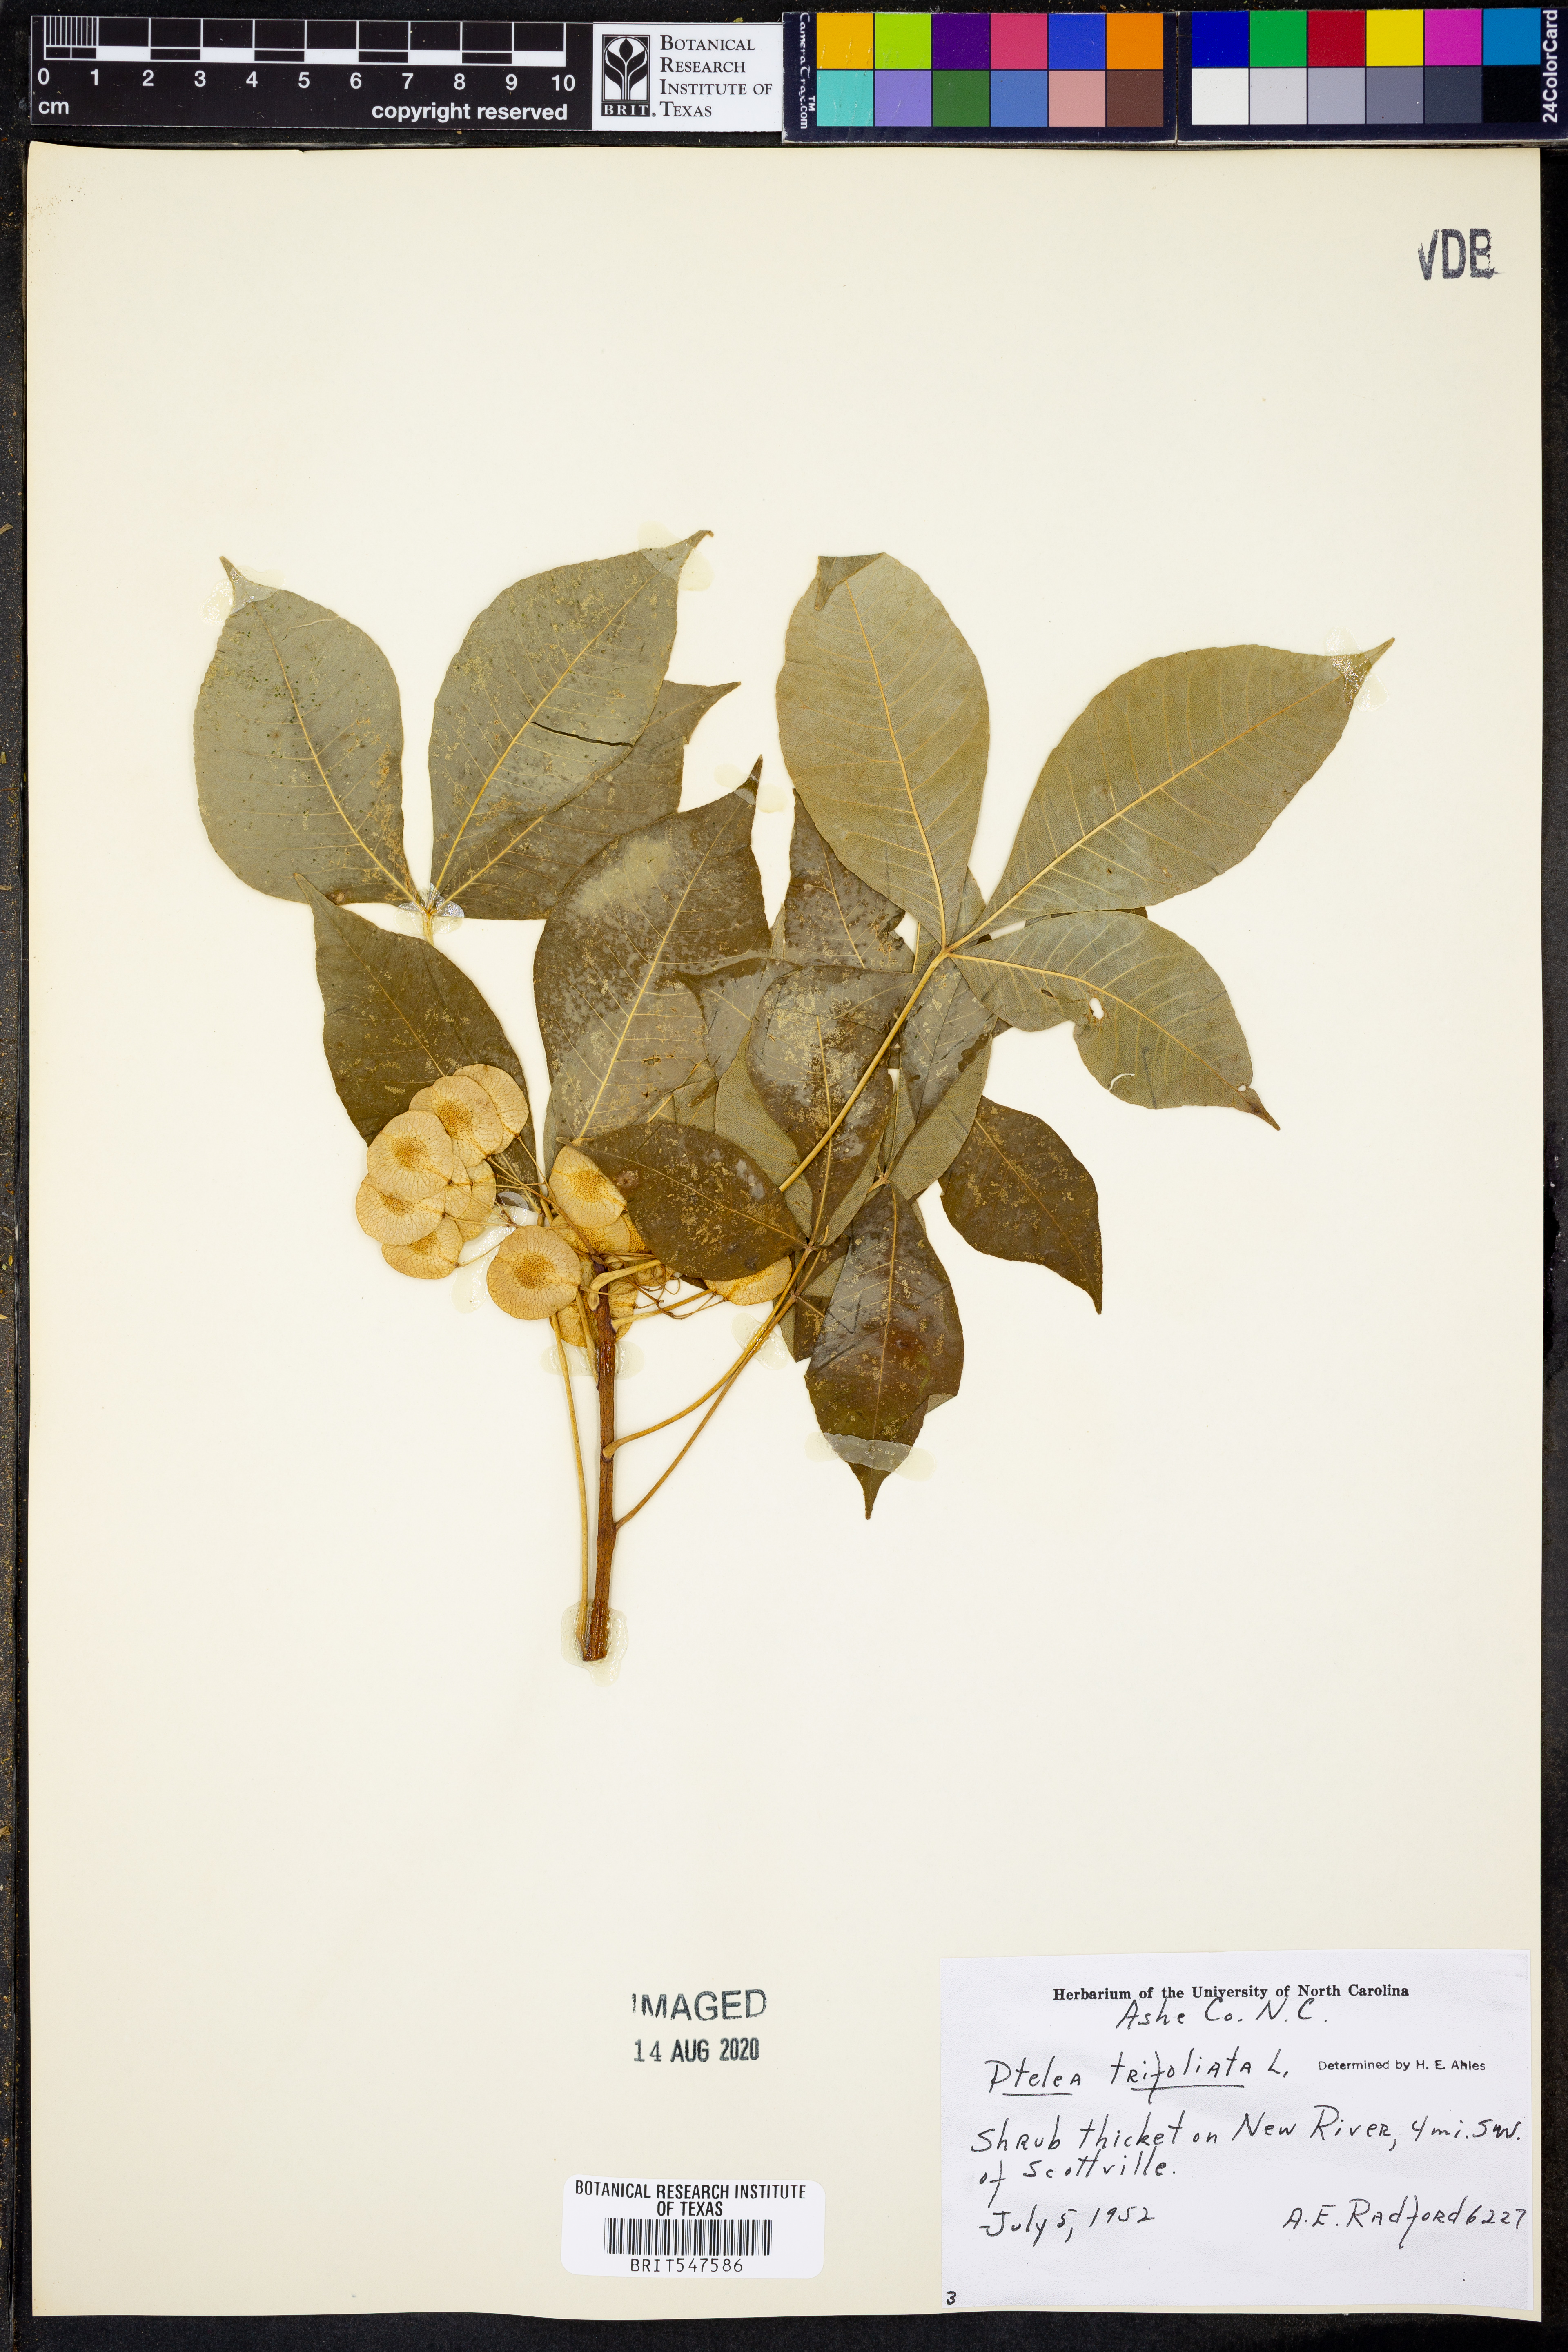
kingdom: Plantae
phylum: Tracheophyta
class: Magnoliopsida
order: Sapindales
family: Rutaceae
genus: Ptelea
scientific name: Ptelea trifoliata
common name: Common hop-tree
